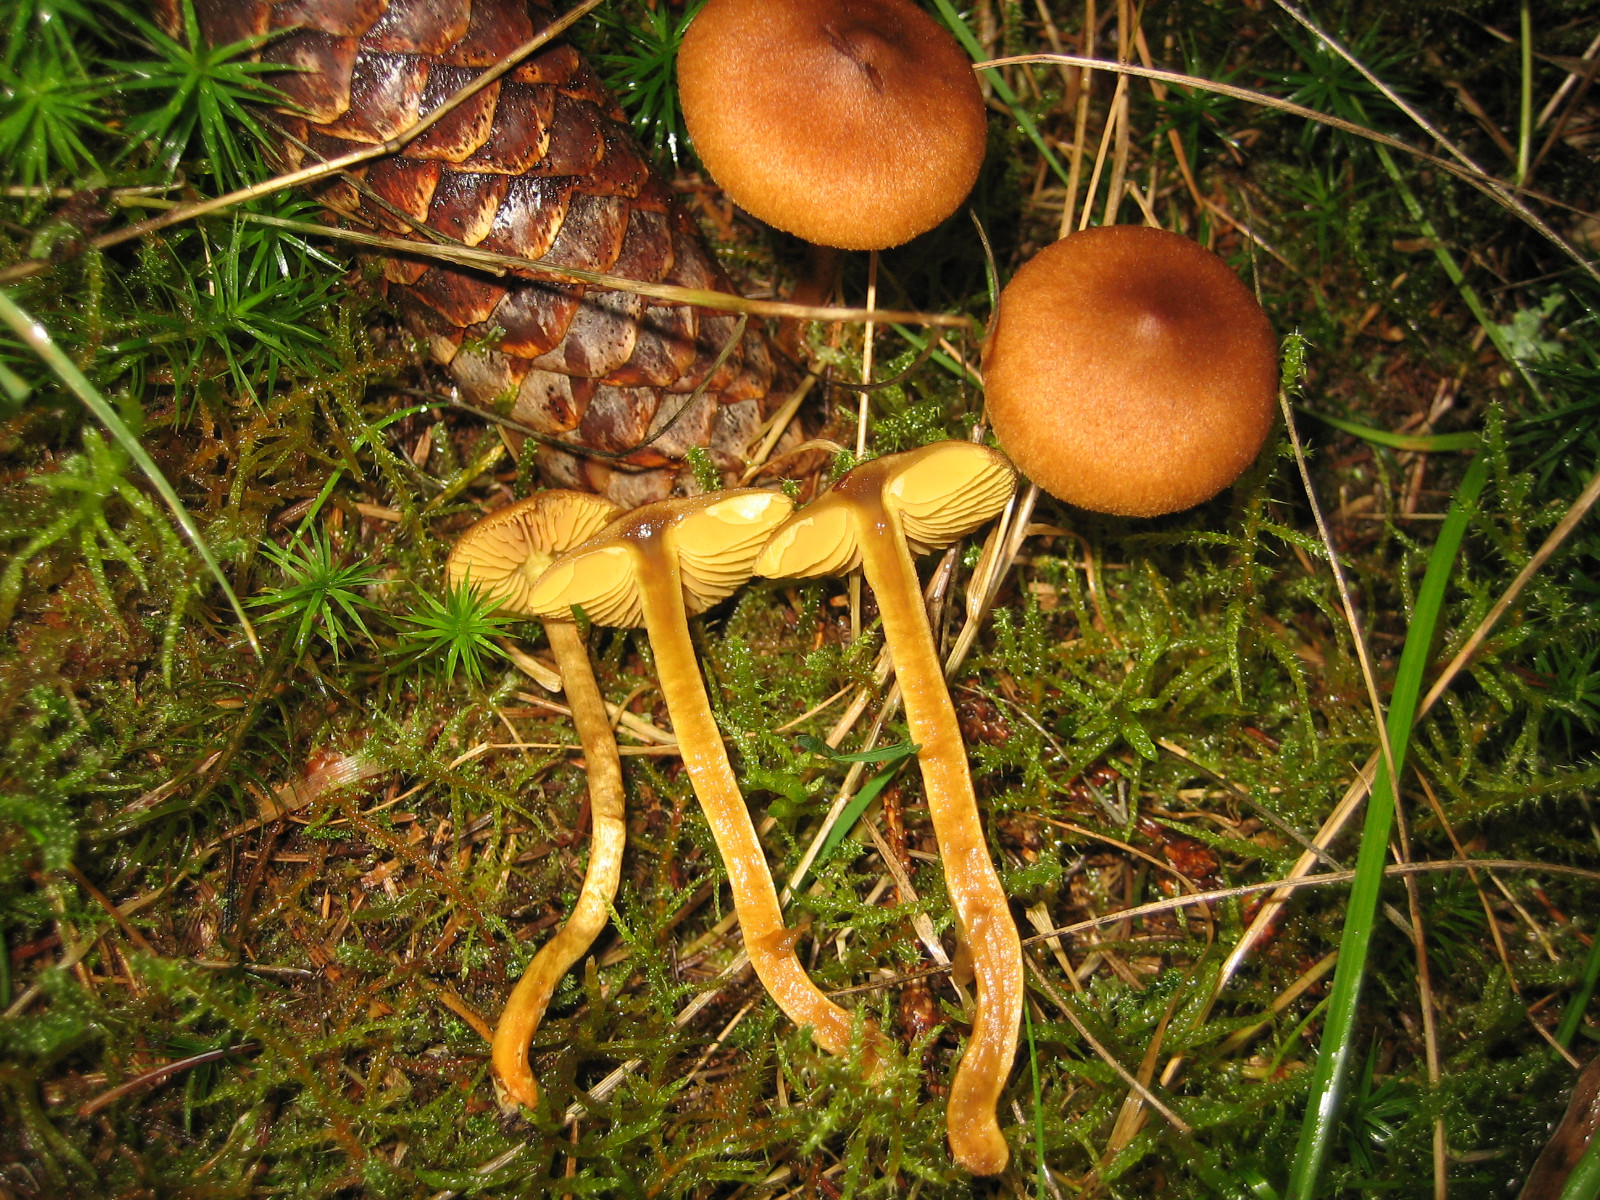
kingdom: Fungi
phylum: Basidiomycota
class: Agaricomycetes
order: Agaricales
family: Cortinariaceae
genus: Cortinarius
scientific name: Cortinarius
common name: gulbladet slørhat
